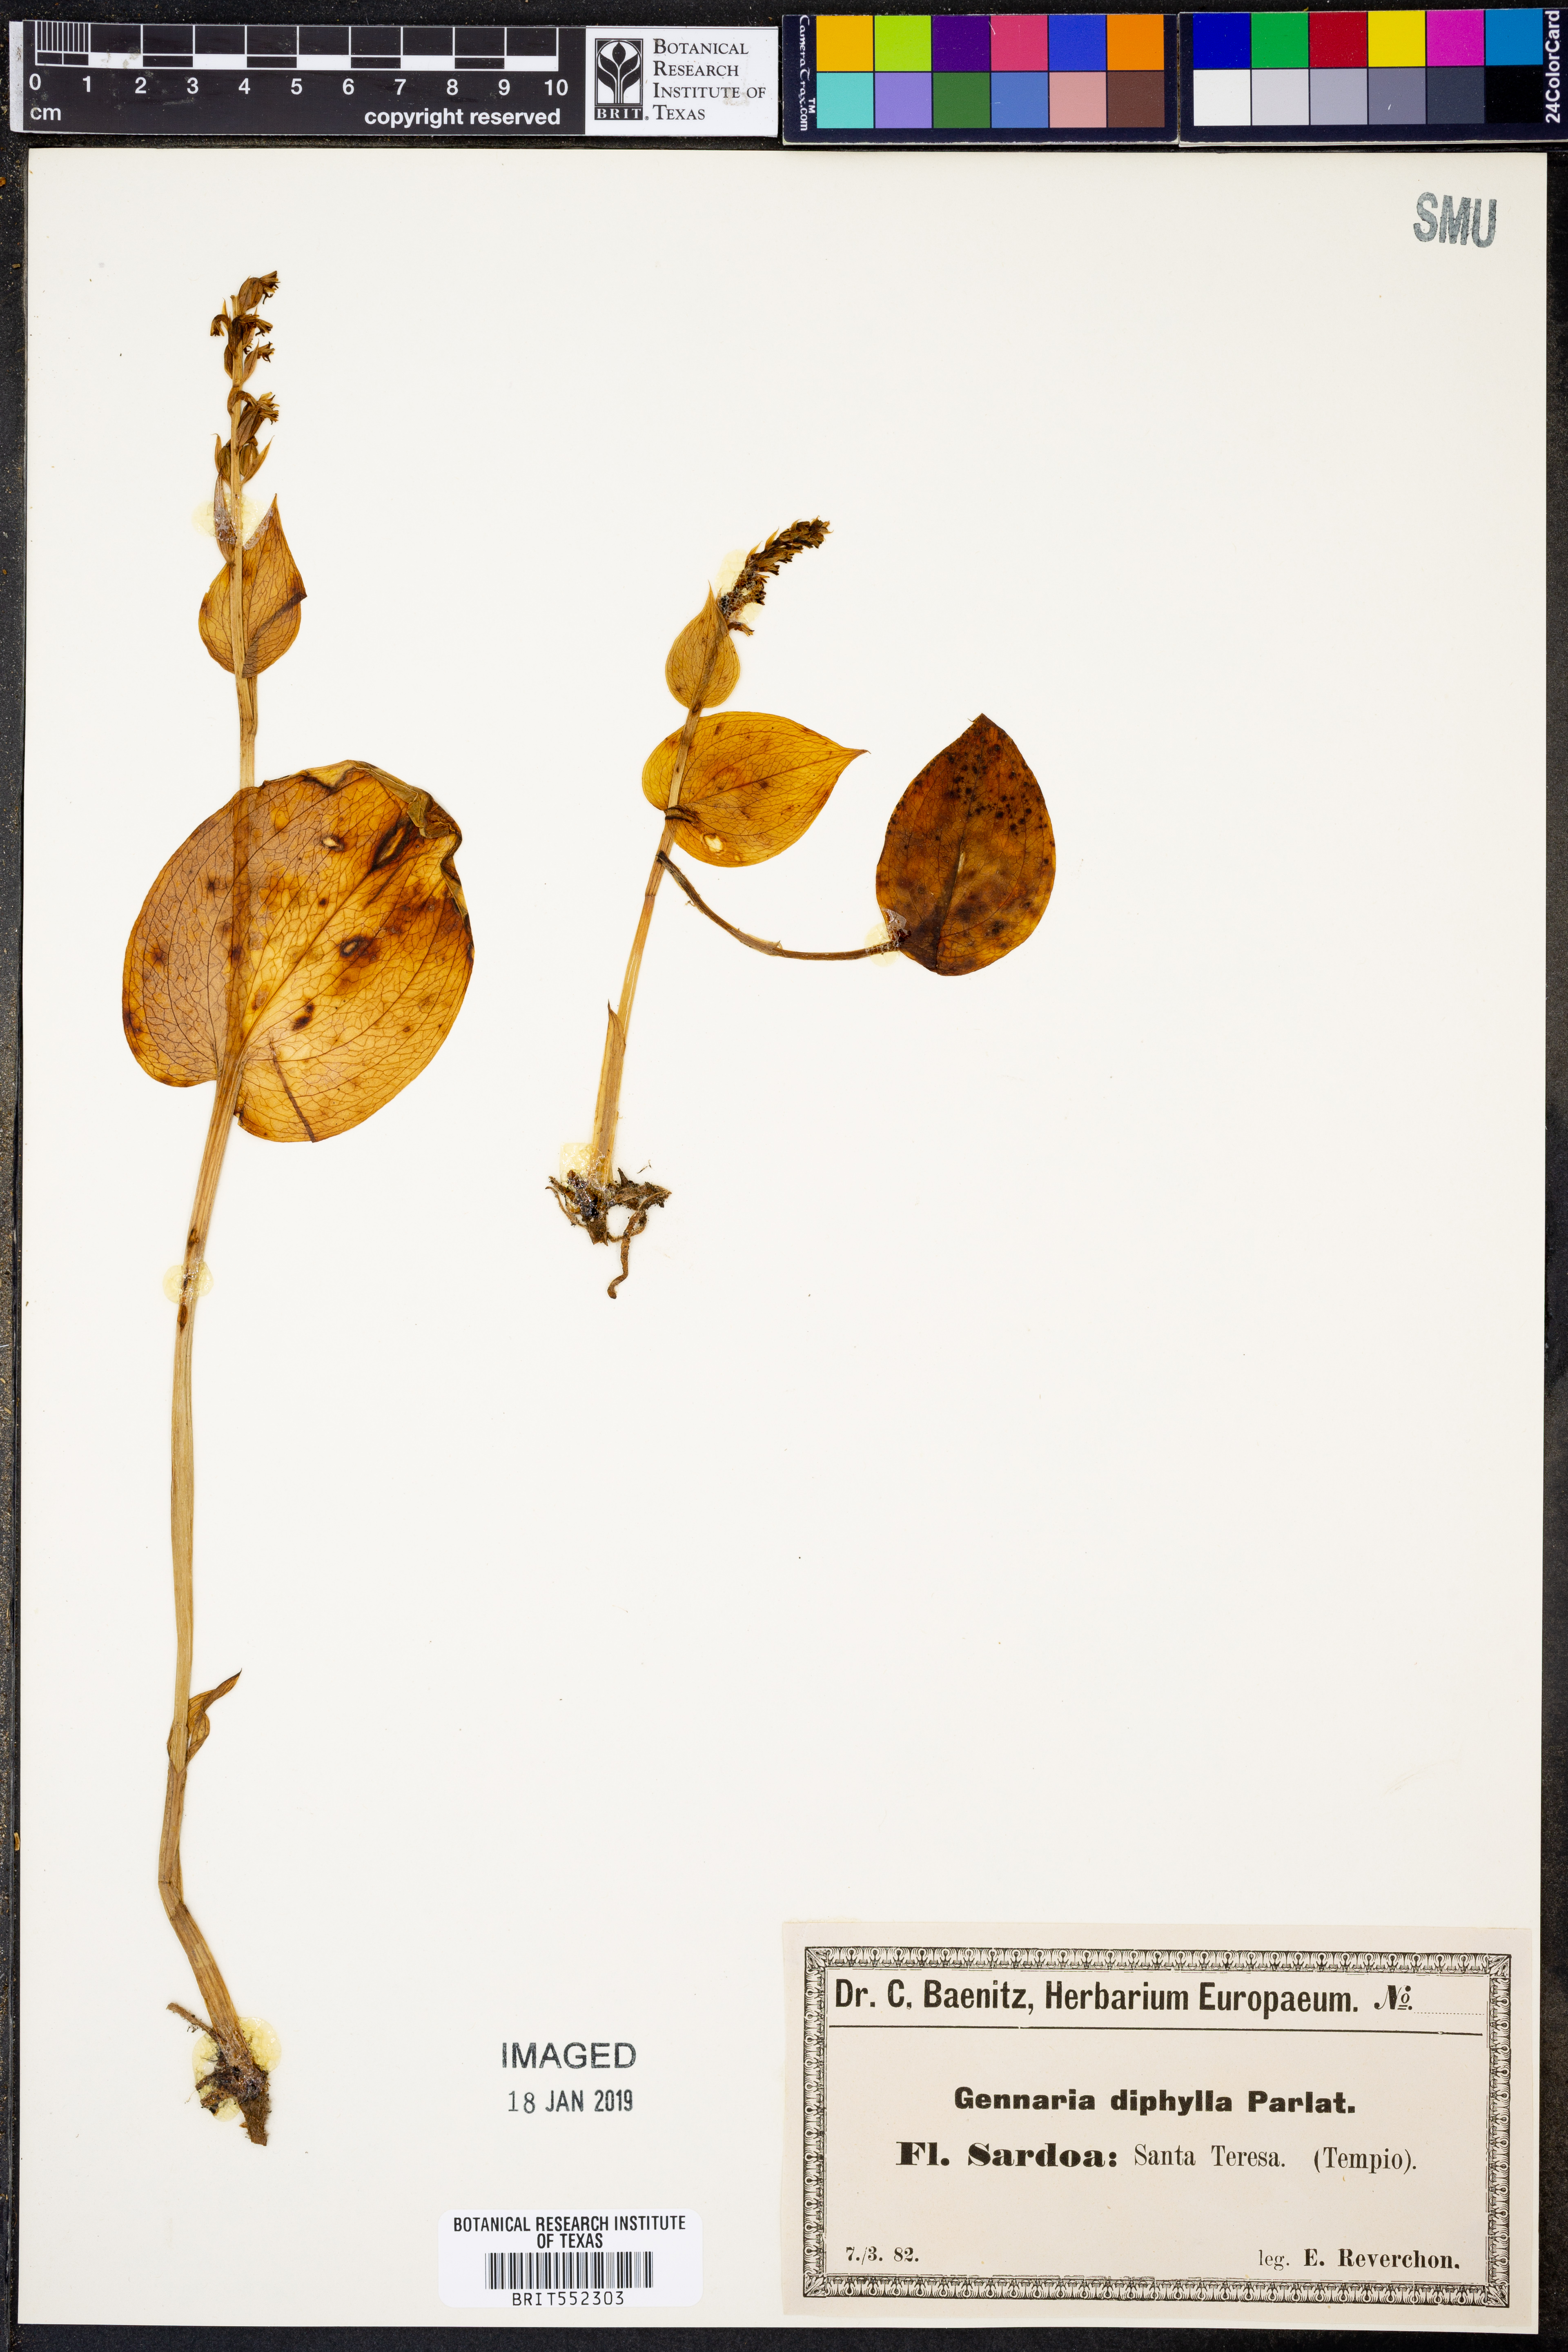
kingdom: Plantae
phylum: Tracheophyta
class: Liliopsida
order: Asparagales
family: Orchidaceae
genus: Gennaria
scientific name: Gennaria diphylla
